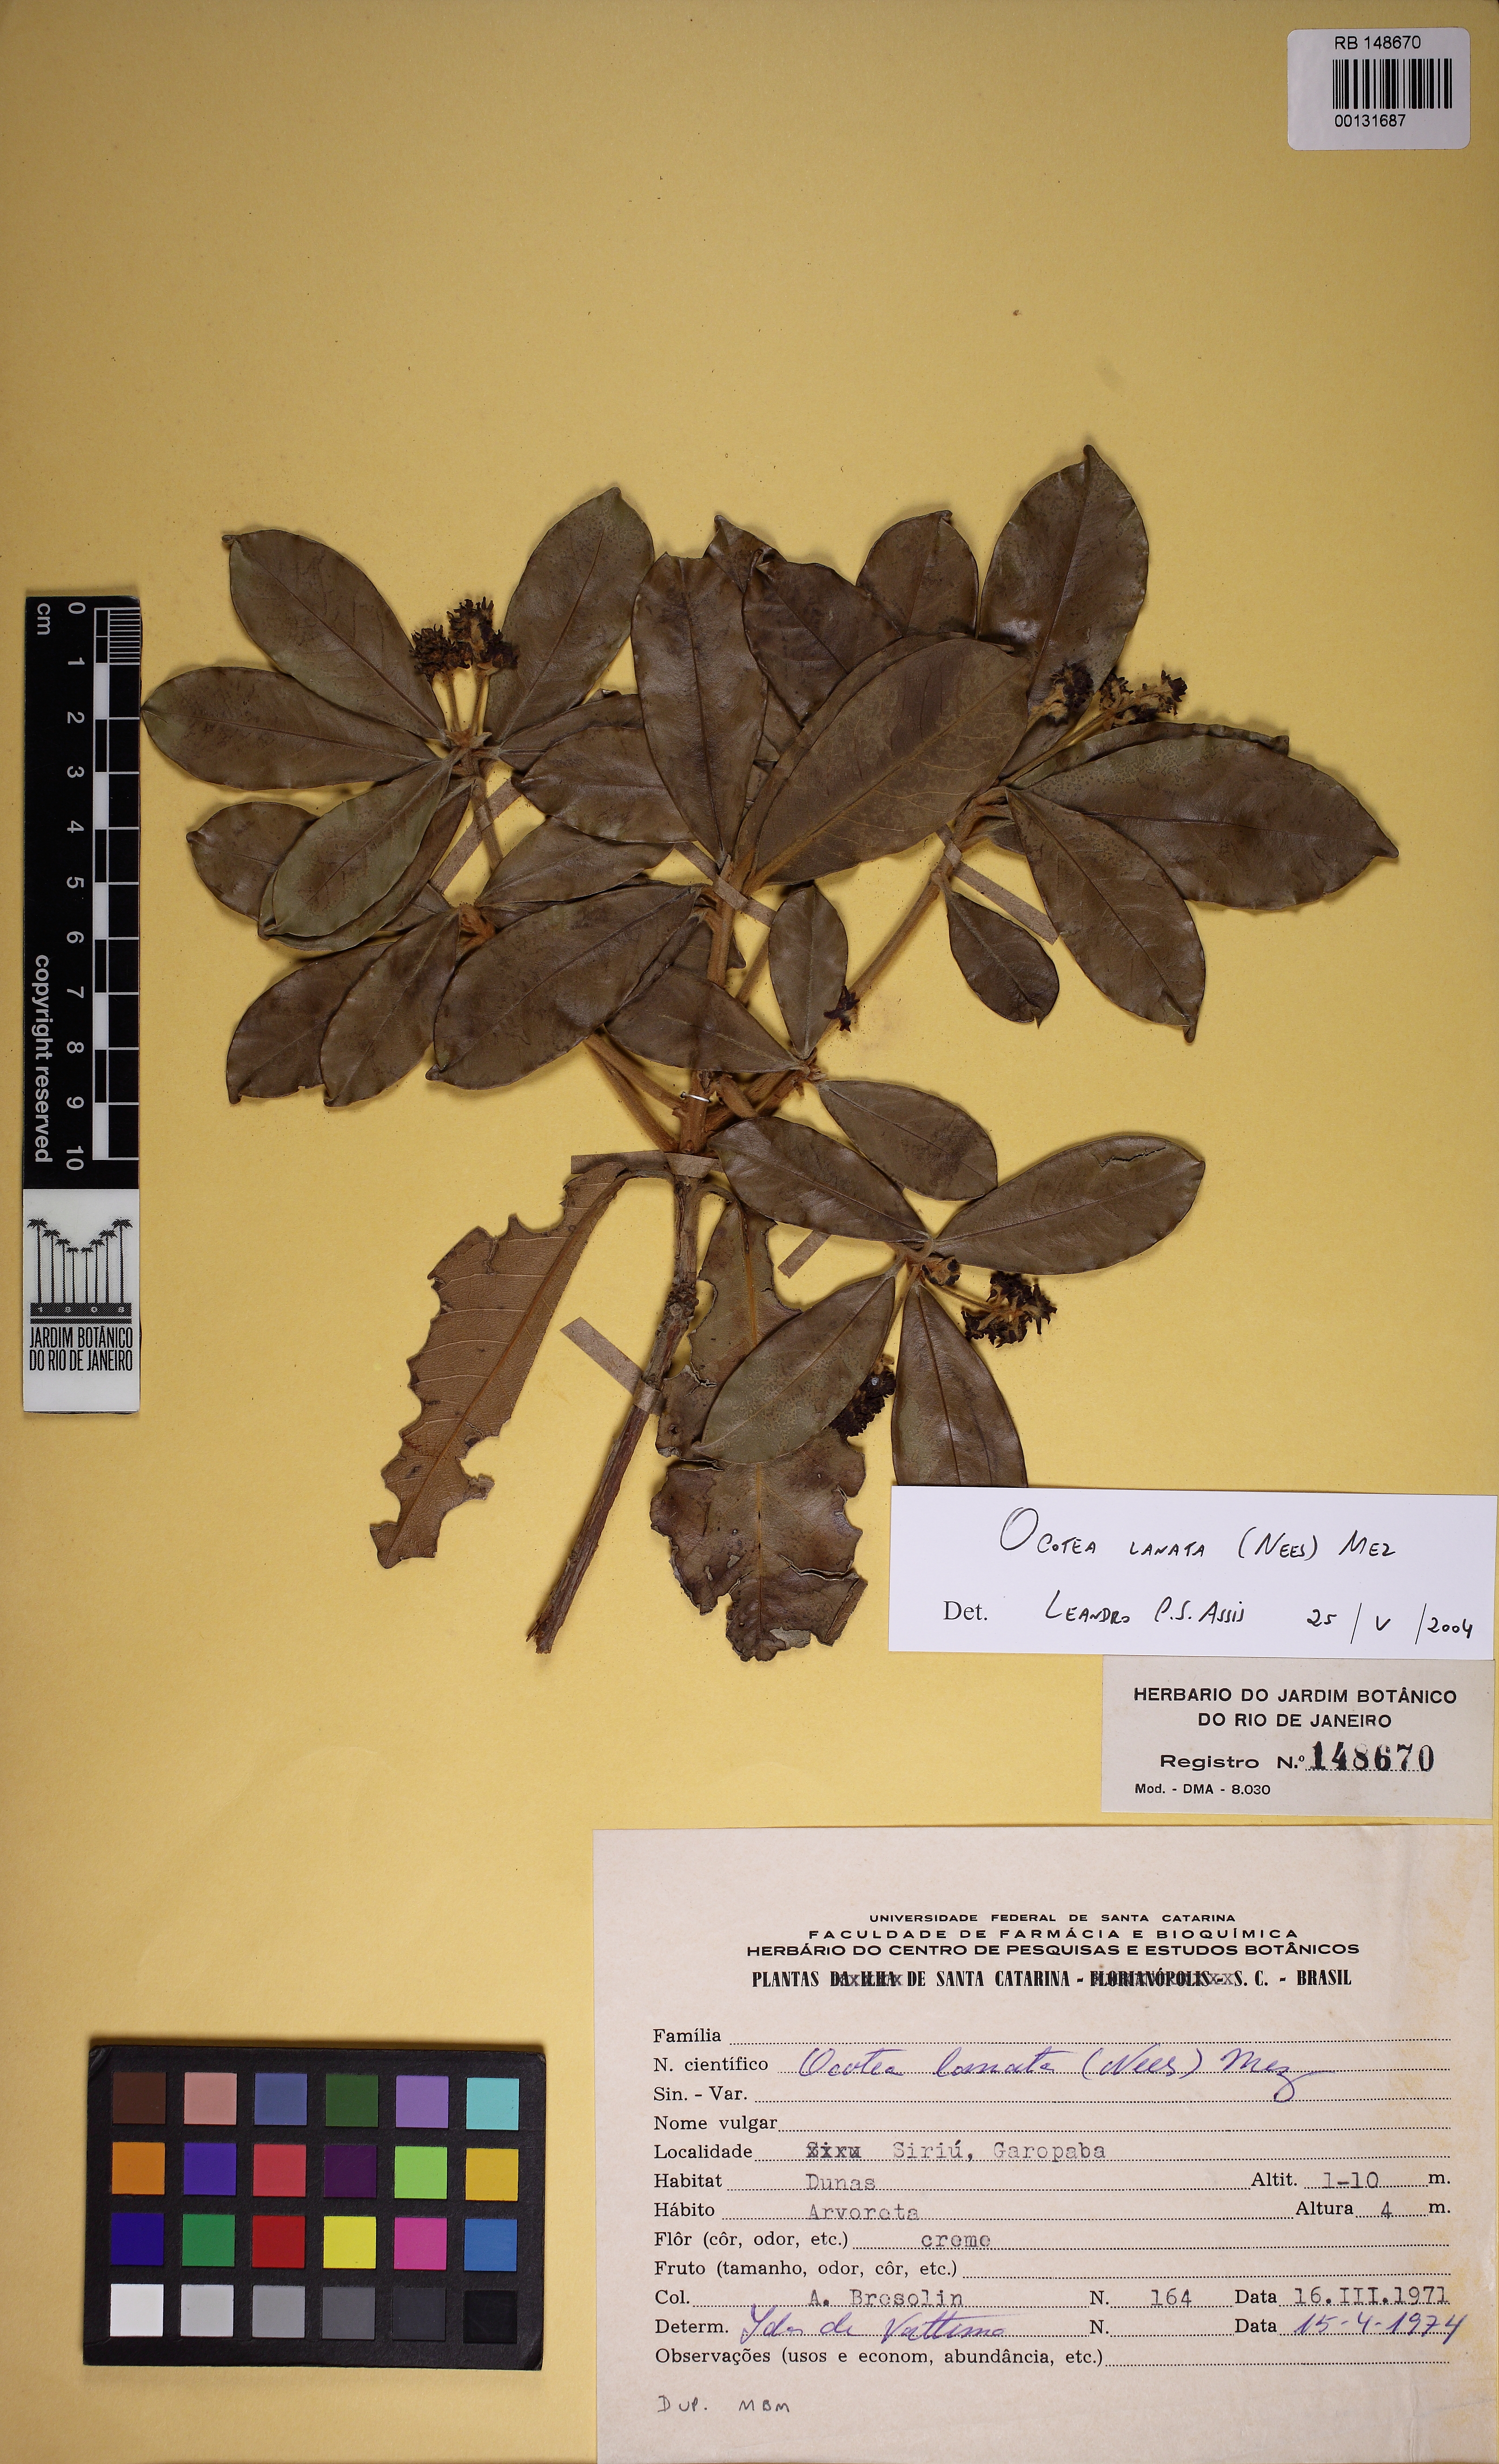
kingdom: Plantae
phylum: Tracheophyta
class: Magnoliopsida
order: Laurales
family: Lauraceae
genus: Ocotea
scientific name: Ocotea lanata
